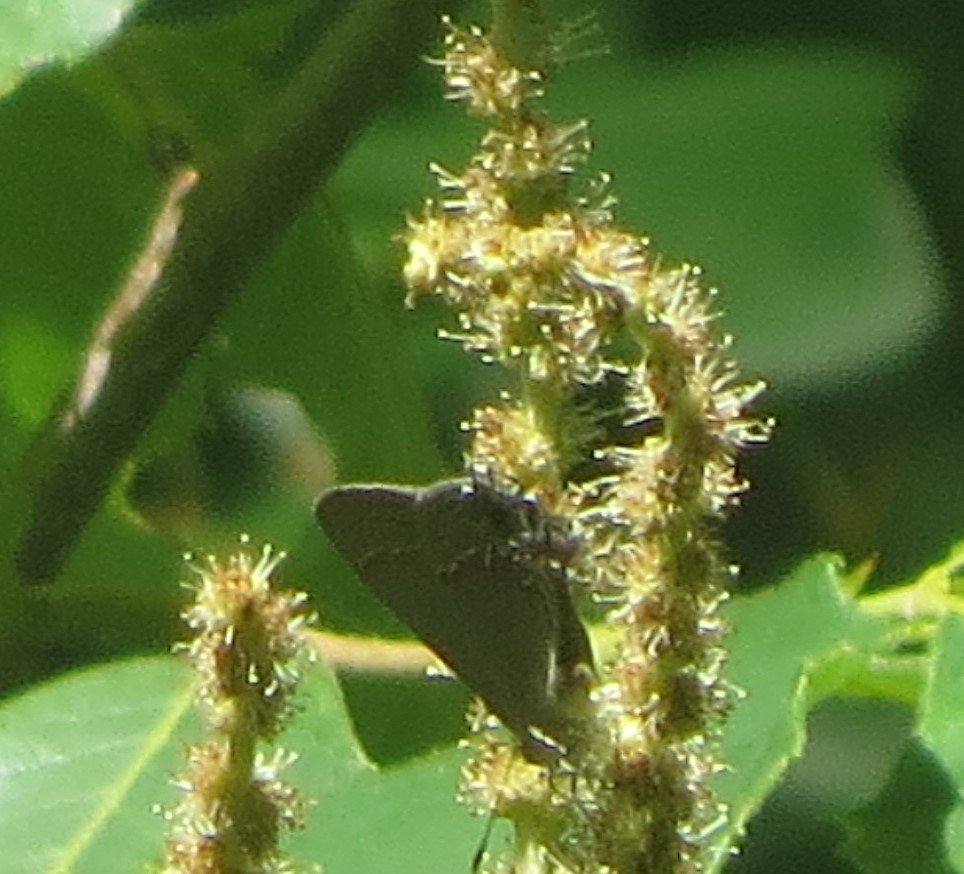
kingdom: Animalia
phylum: Arthropoda
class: Insecta
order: Lepidoptera
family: Lycaenidae
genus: Calycopis
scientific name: Calycopis cecrops
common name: Red-banded Hairstreak
